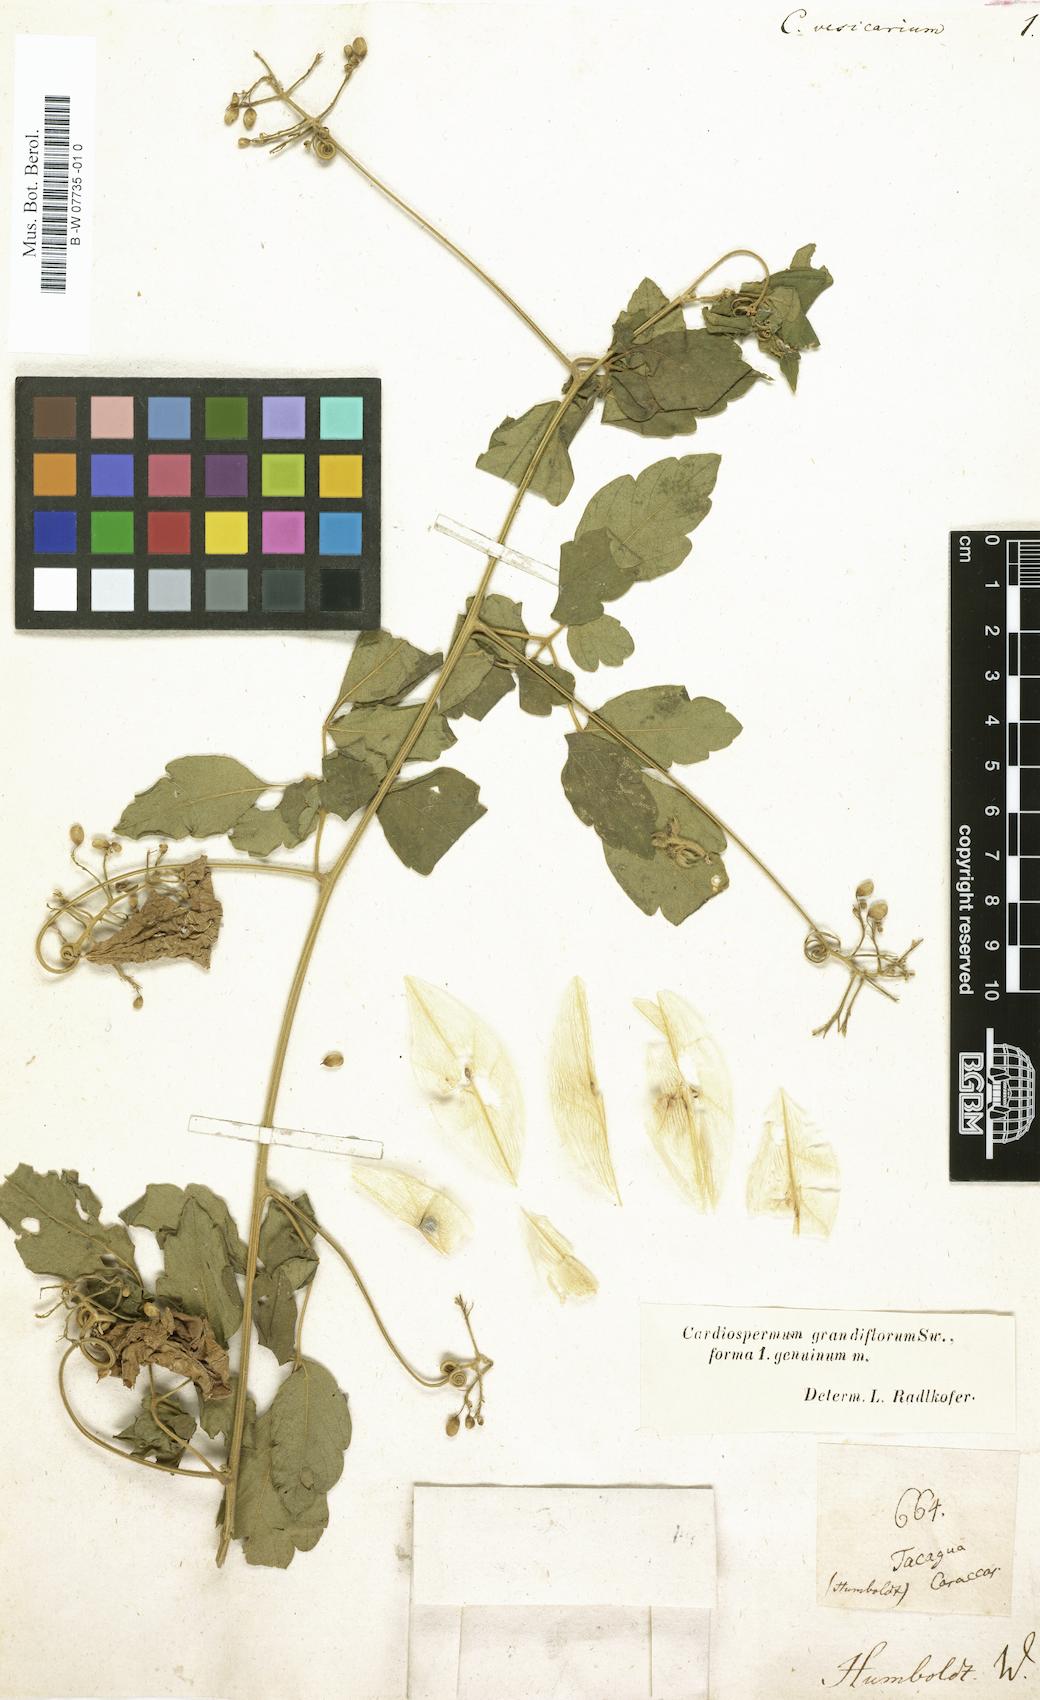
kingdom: Plantae
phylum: Tracheophyta
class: Magnoliopsida
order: Sapindales
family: Sapindaceae
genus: Cardiospermum
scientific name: Cardiospermum grandiflorum
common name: Balloon vine
